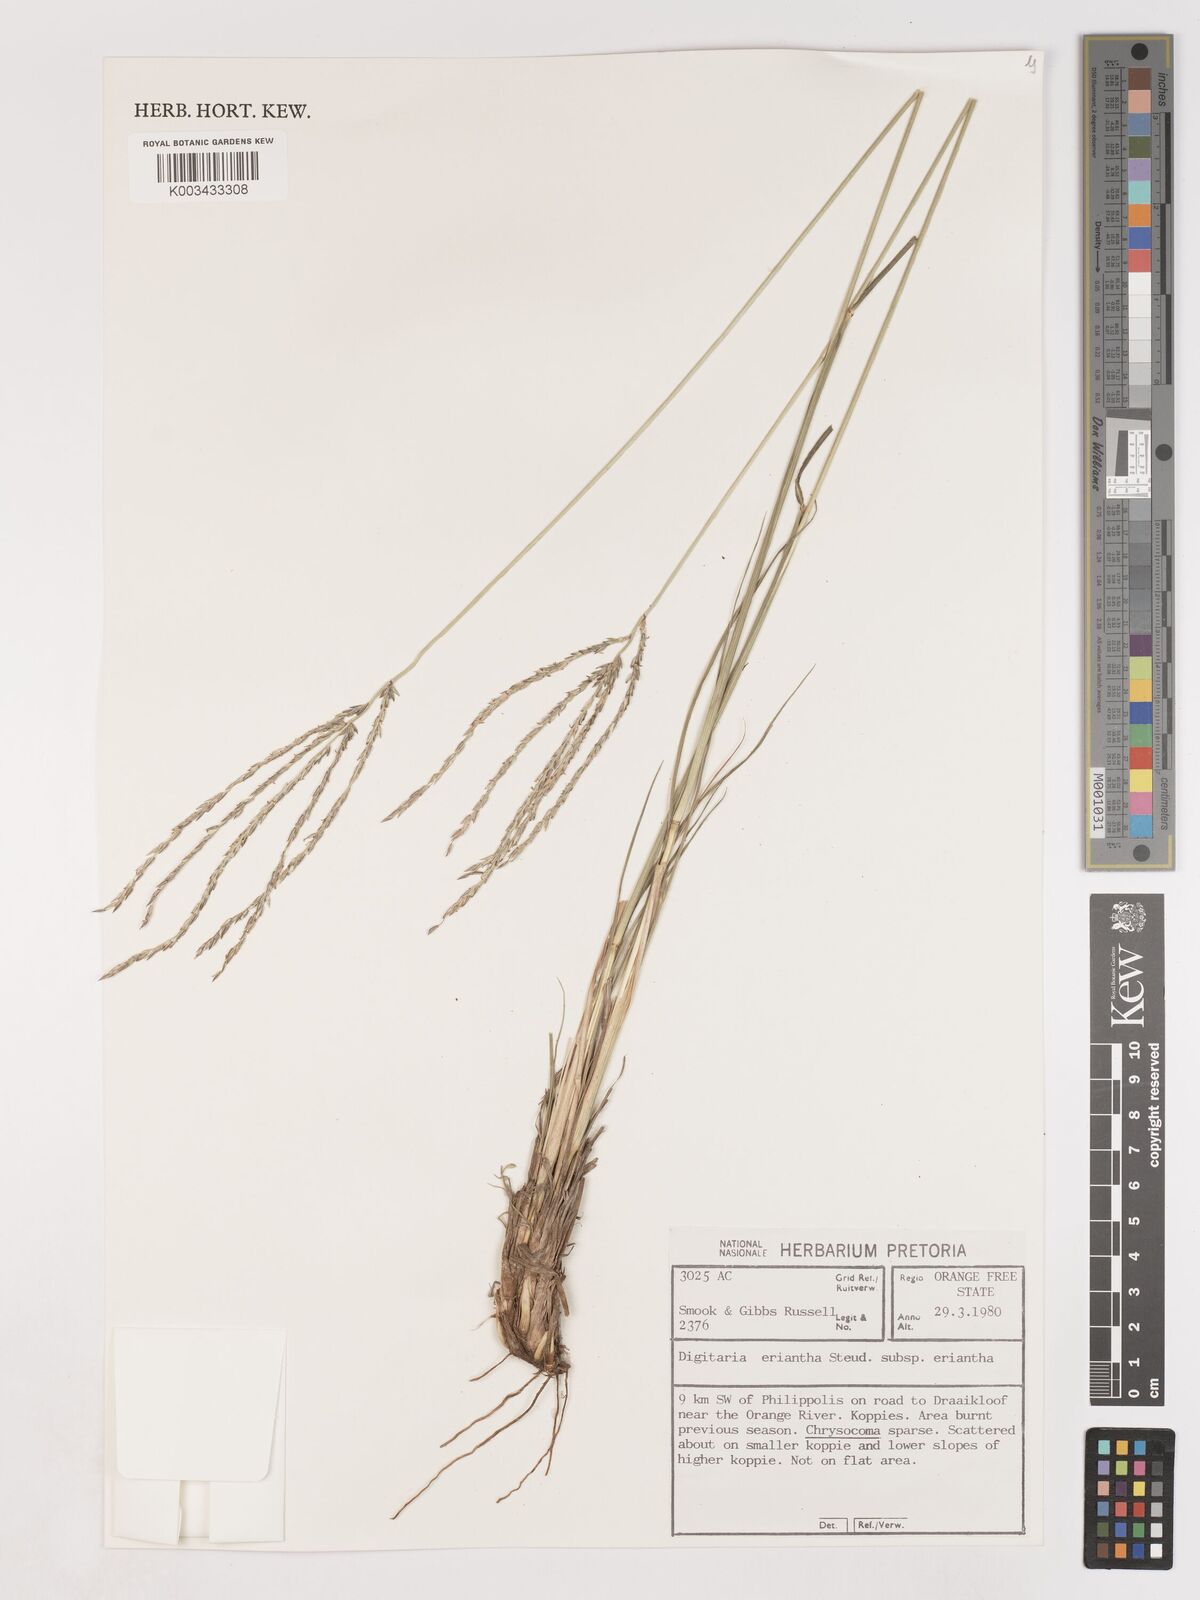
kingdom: Plantae
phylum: Tracheophyta
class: Liliopsida
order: Poales
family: Poaceae
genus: Digitaria
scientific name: Digitaria eriantha
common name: Digitgrass
